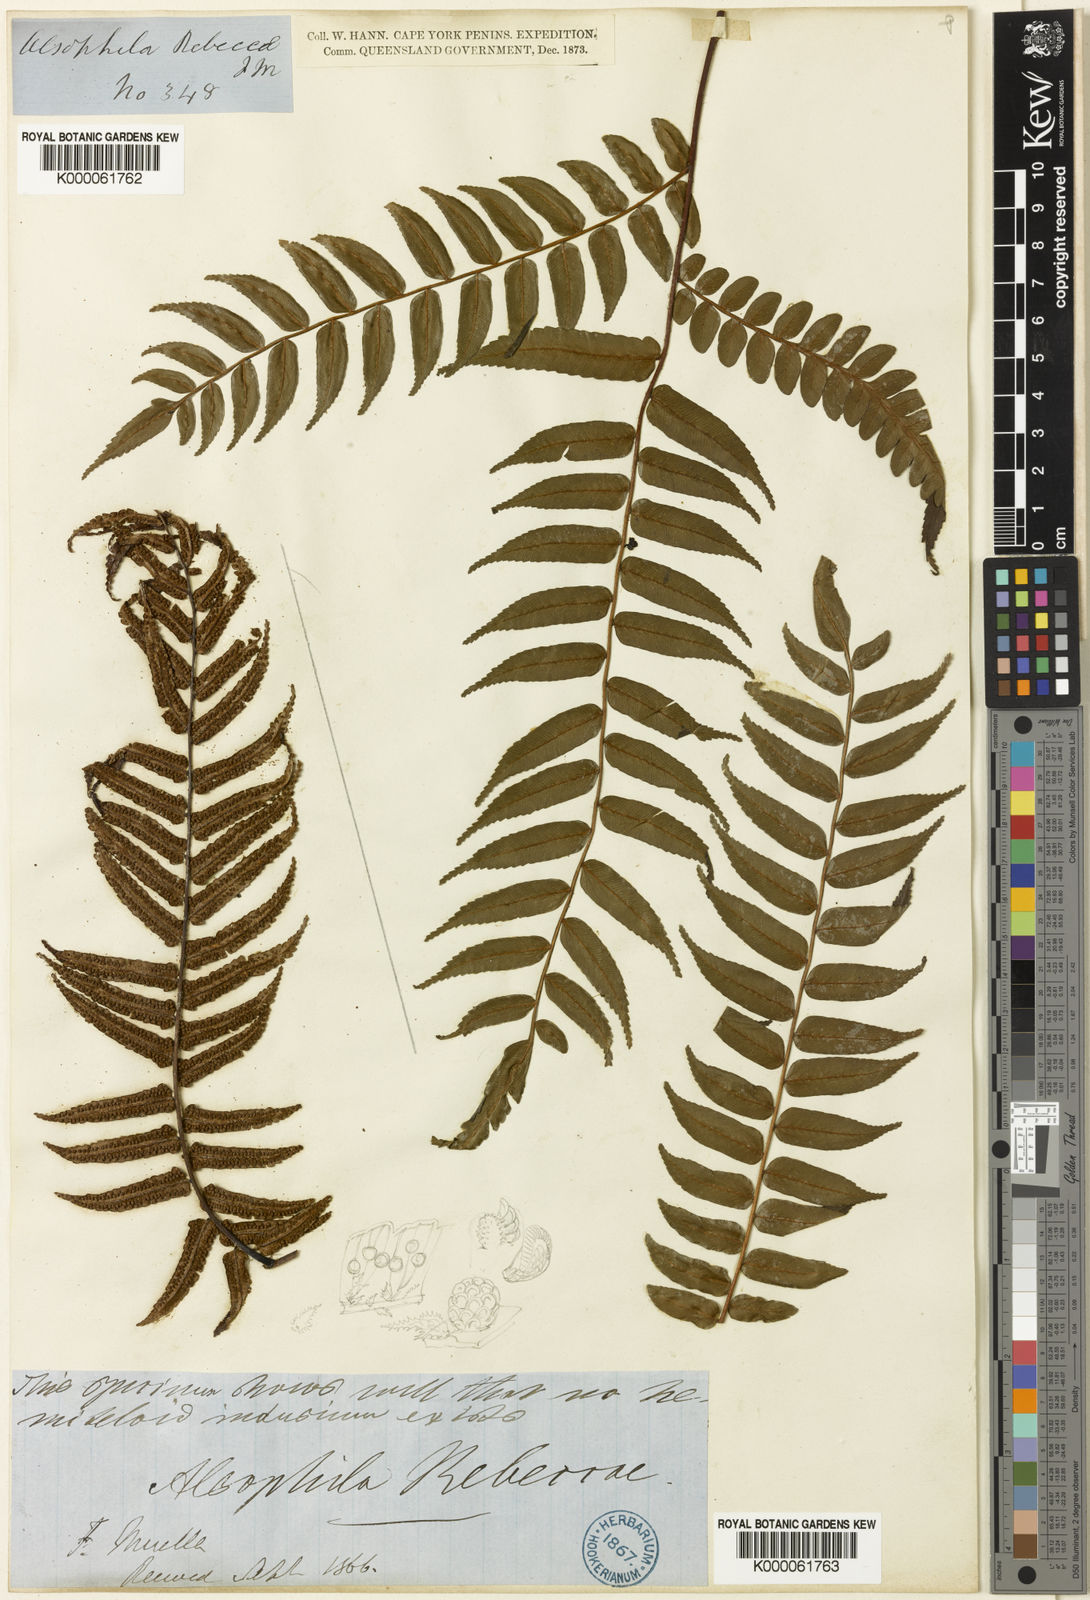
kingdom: Plantae
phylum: Tracheophyta
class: Polypodiopsida
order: Cyatheales
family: Cyatheaceae
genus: Gymnosphaera
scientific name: Gymnosphaera rebeccae
